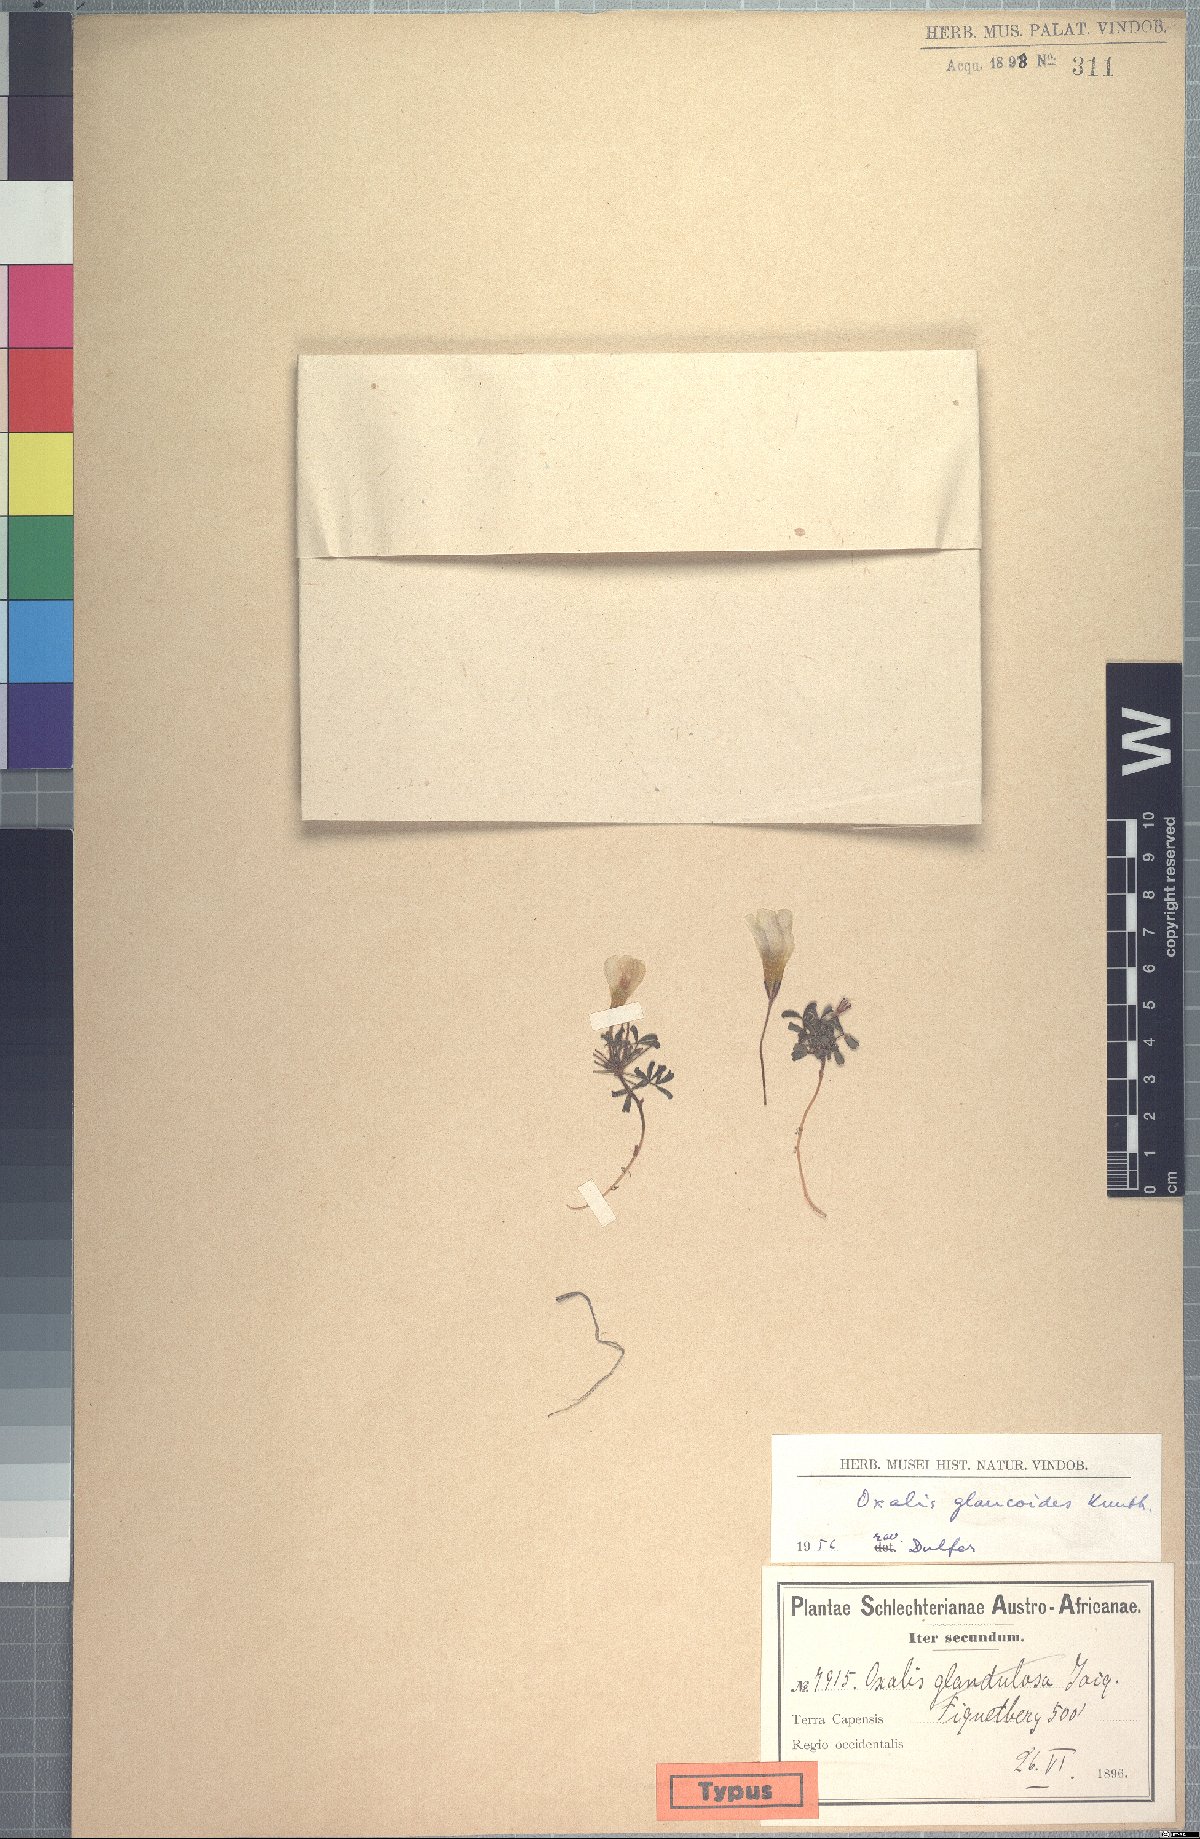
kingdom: Plantae
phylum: Tracheophyta
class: Magnoliopsida
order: Oxalidales
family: Oxalidaceae
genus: Oxalis
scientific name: Oxalis recticaulis
